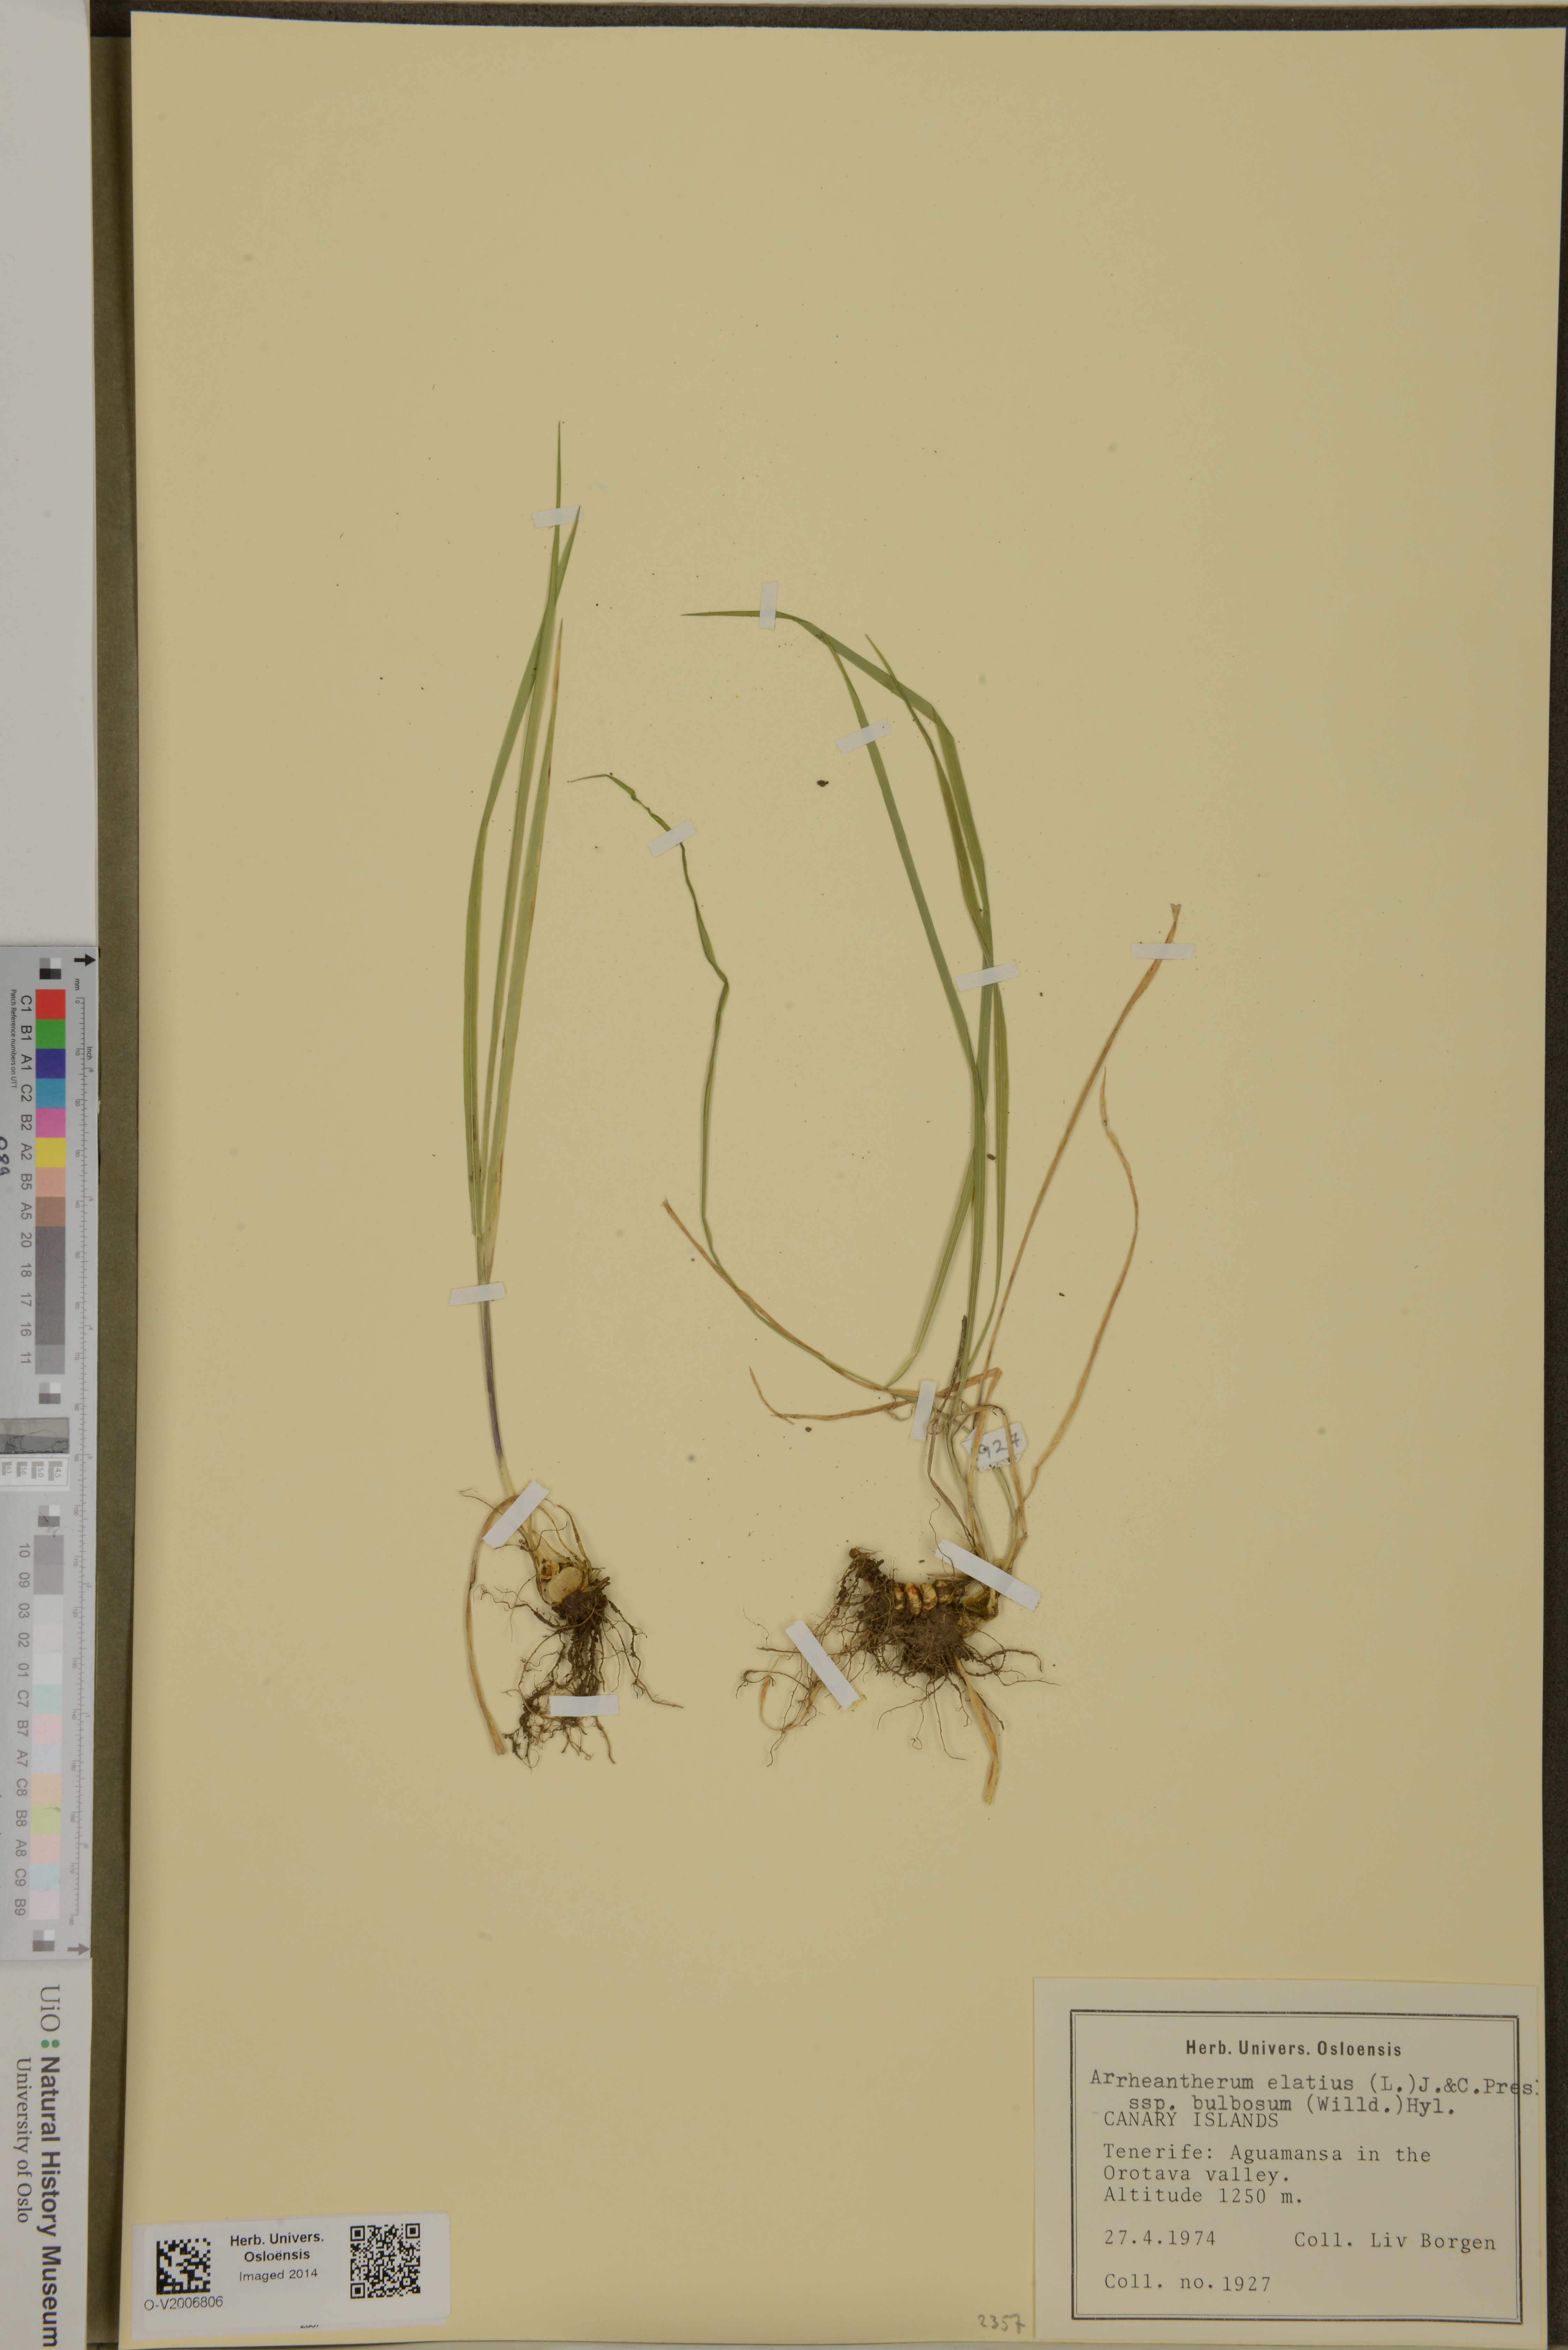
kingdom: Plantae
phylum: Tracheophyta
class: Liliopsida
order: Poales
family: Poaceae
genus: Arrhenatherum
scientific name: Arrhenatherum elatius
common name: Tall oatgrass
